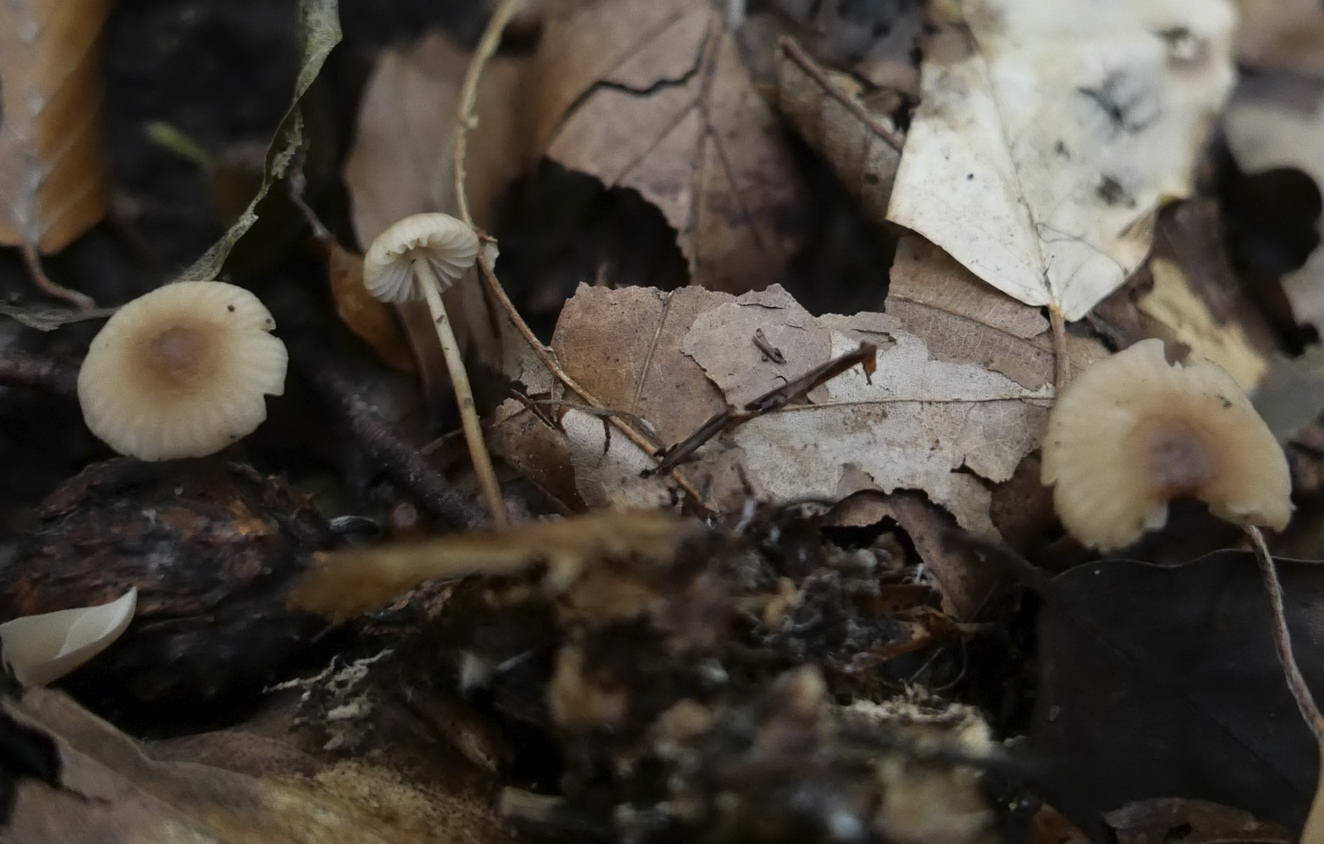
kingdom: Fungi
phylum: Basidiomycota
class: Agaricomycetes
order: Agaricales
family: Marasmiaceae
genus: Marasmius
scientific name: Marasmius torquescens
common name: filtfodet bruskhat
